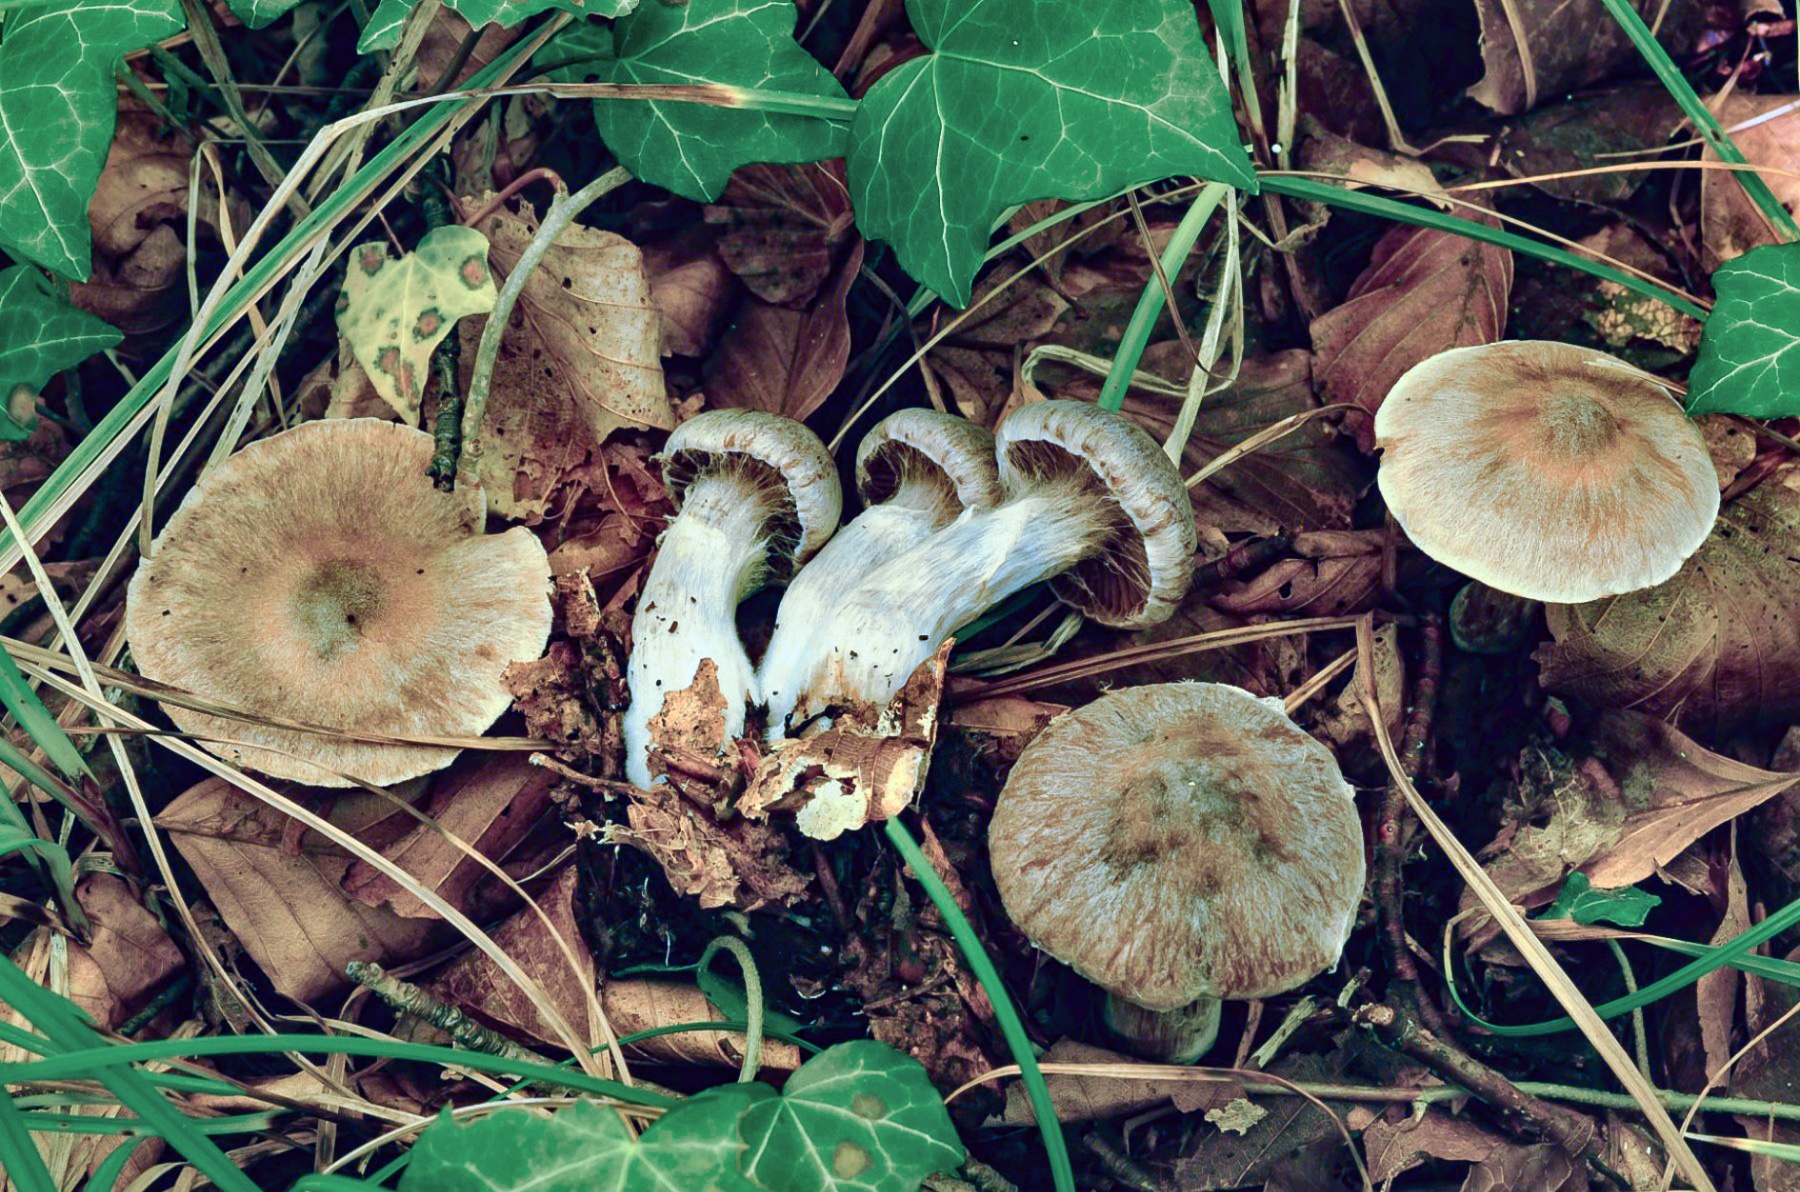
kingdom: Fungi
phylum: Basidiomycota
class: Agaricomycetes
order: Agaricales
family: Cortinariaceae
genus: Cortinarius
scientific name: Cortinarius torvoides
